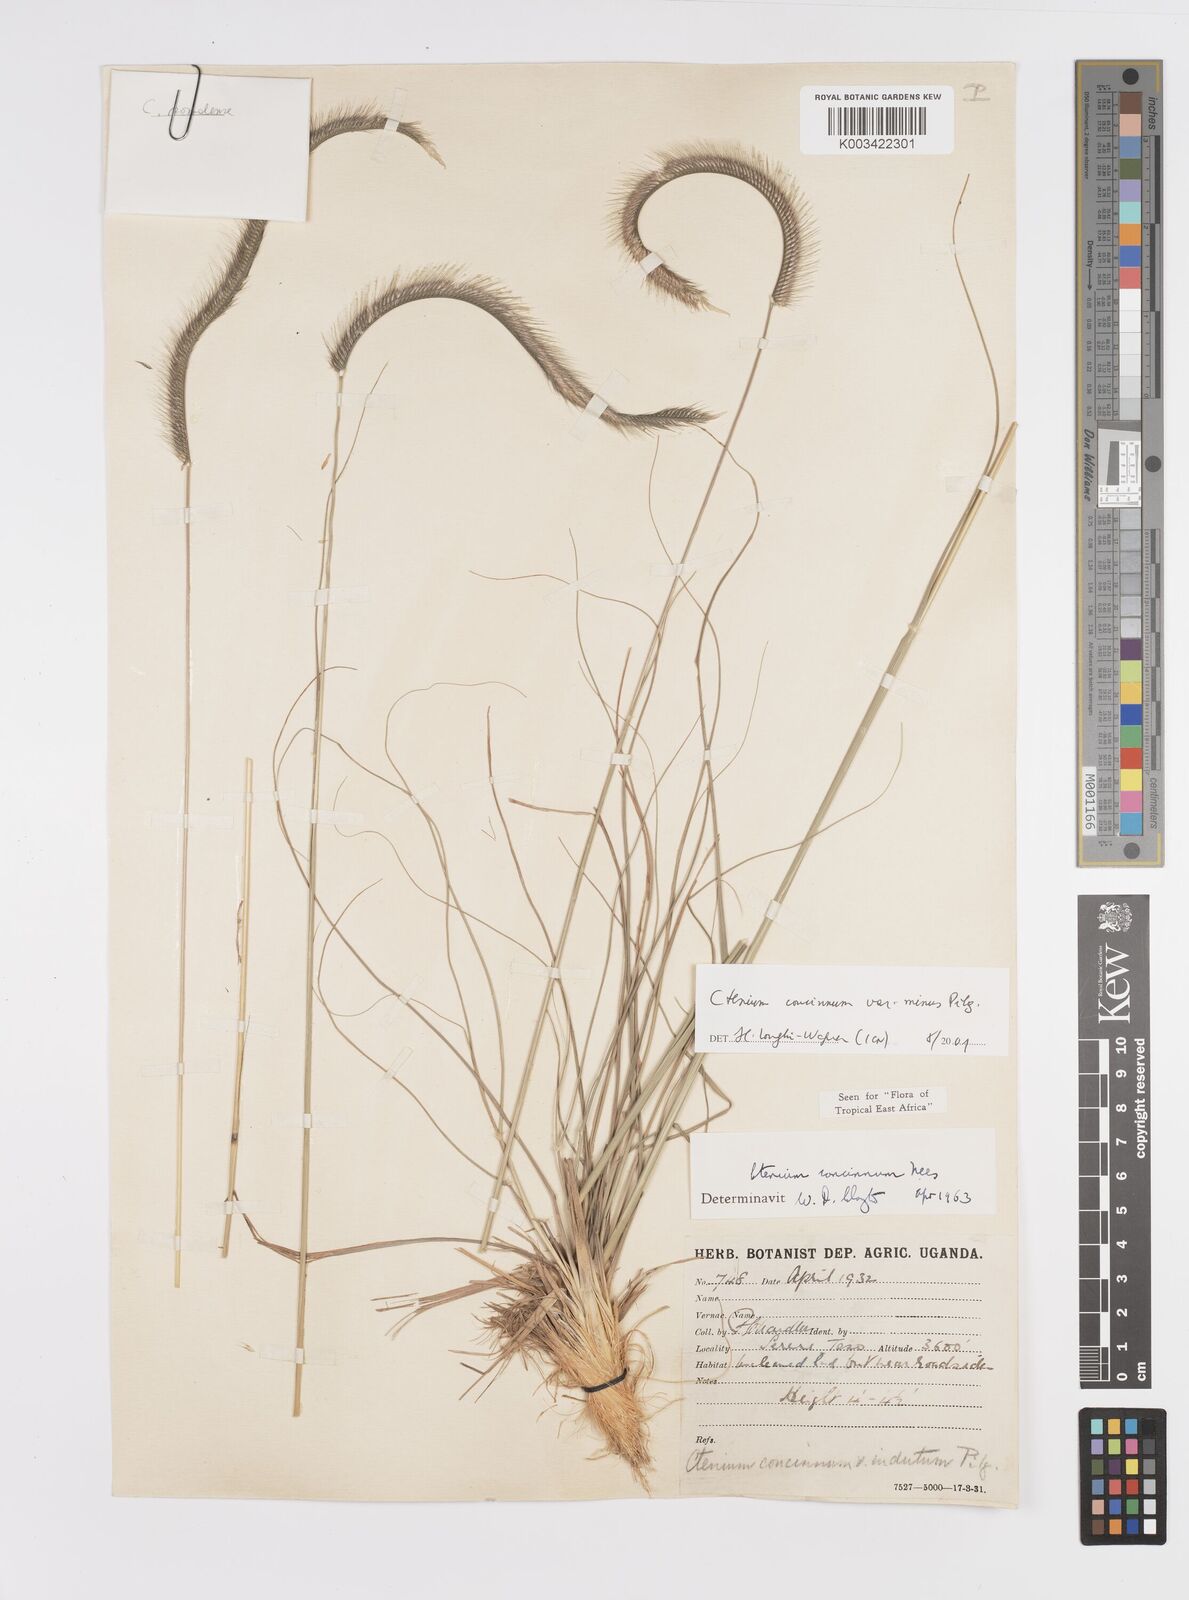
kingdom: Plantae
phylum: Tracheophyta
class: Liliopsida
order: Poales
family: Poaceae
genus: Ctenium
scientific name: Ctenium concinnum
